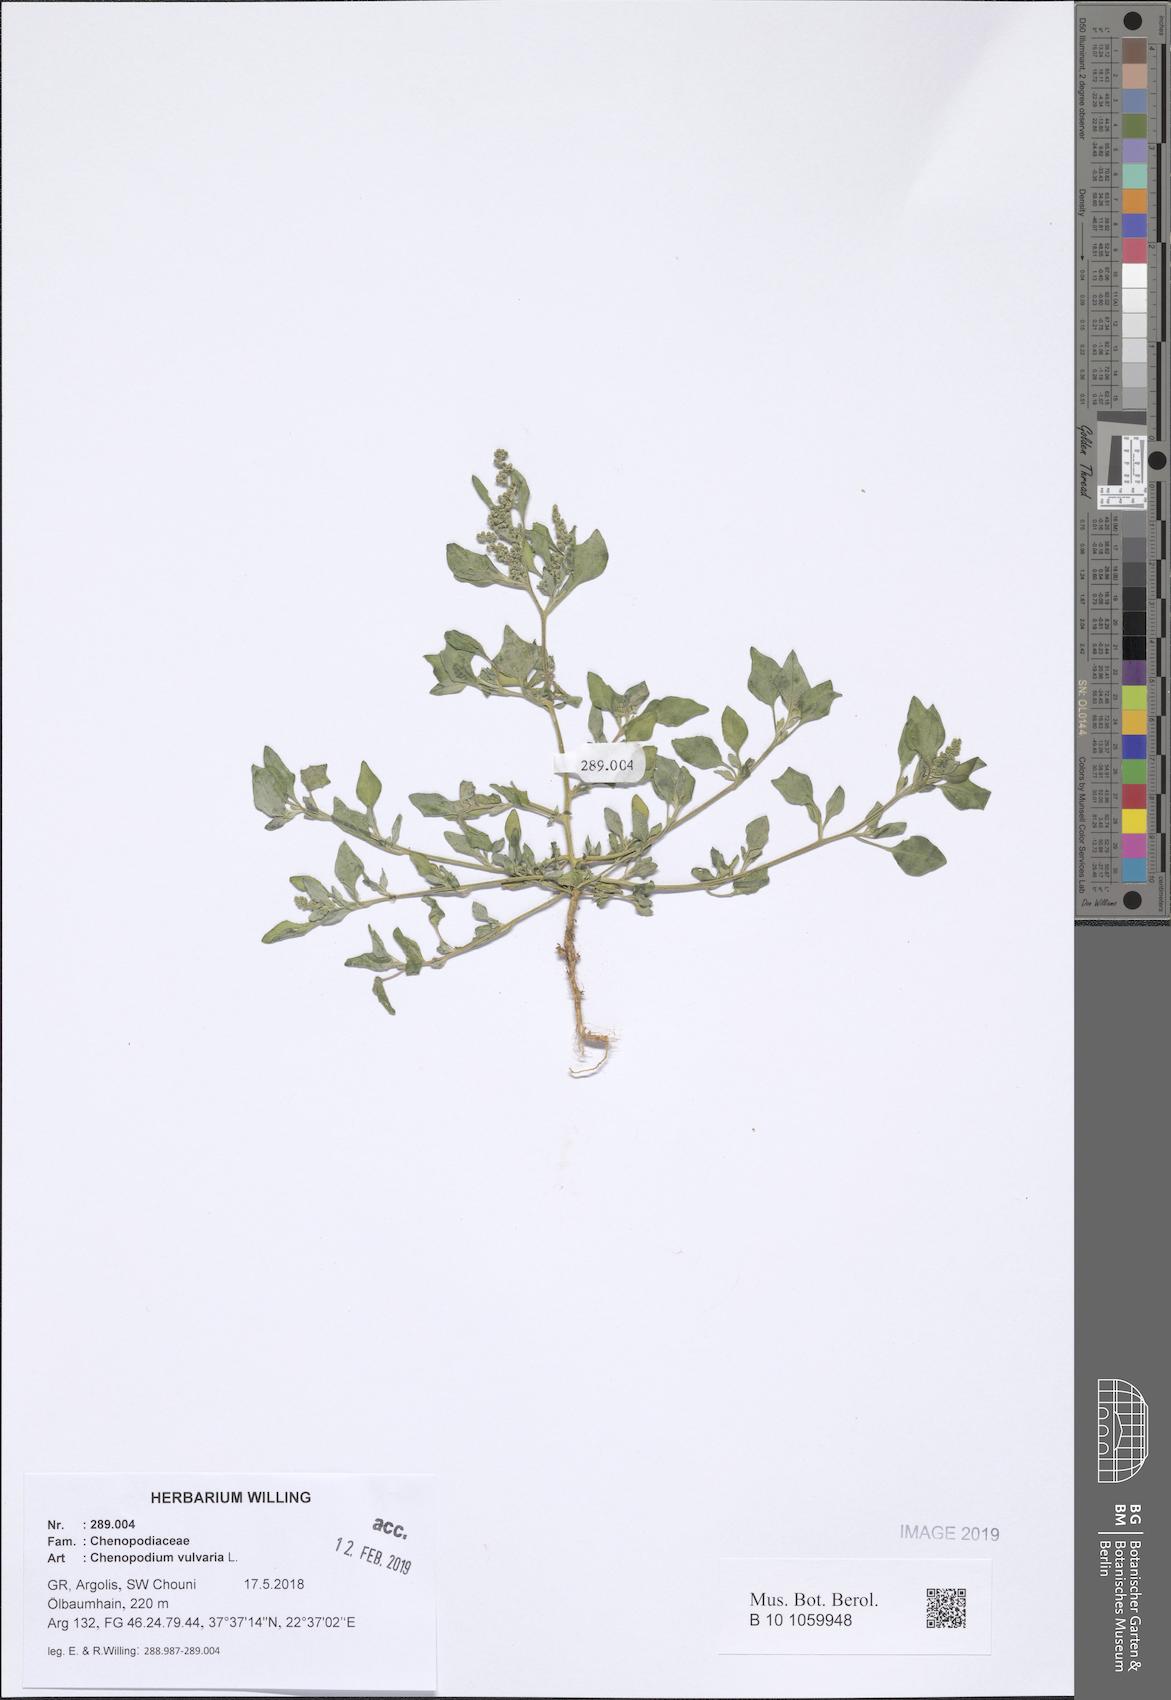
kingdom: Plantae
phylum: Tracheophyta
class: Magnoliopsida
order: Caryophyllales
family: Amaranthaceae
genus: Chenopodium
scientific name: Chenopodium vulvaria
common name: Stinking goosefoot
